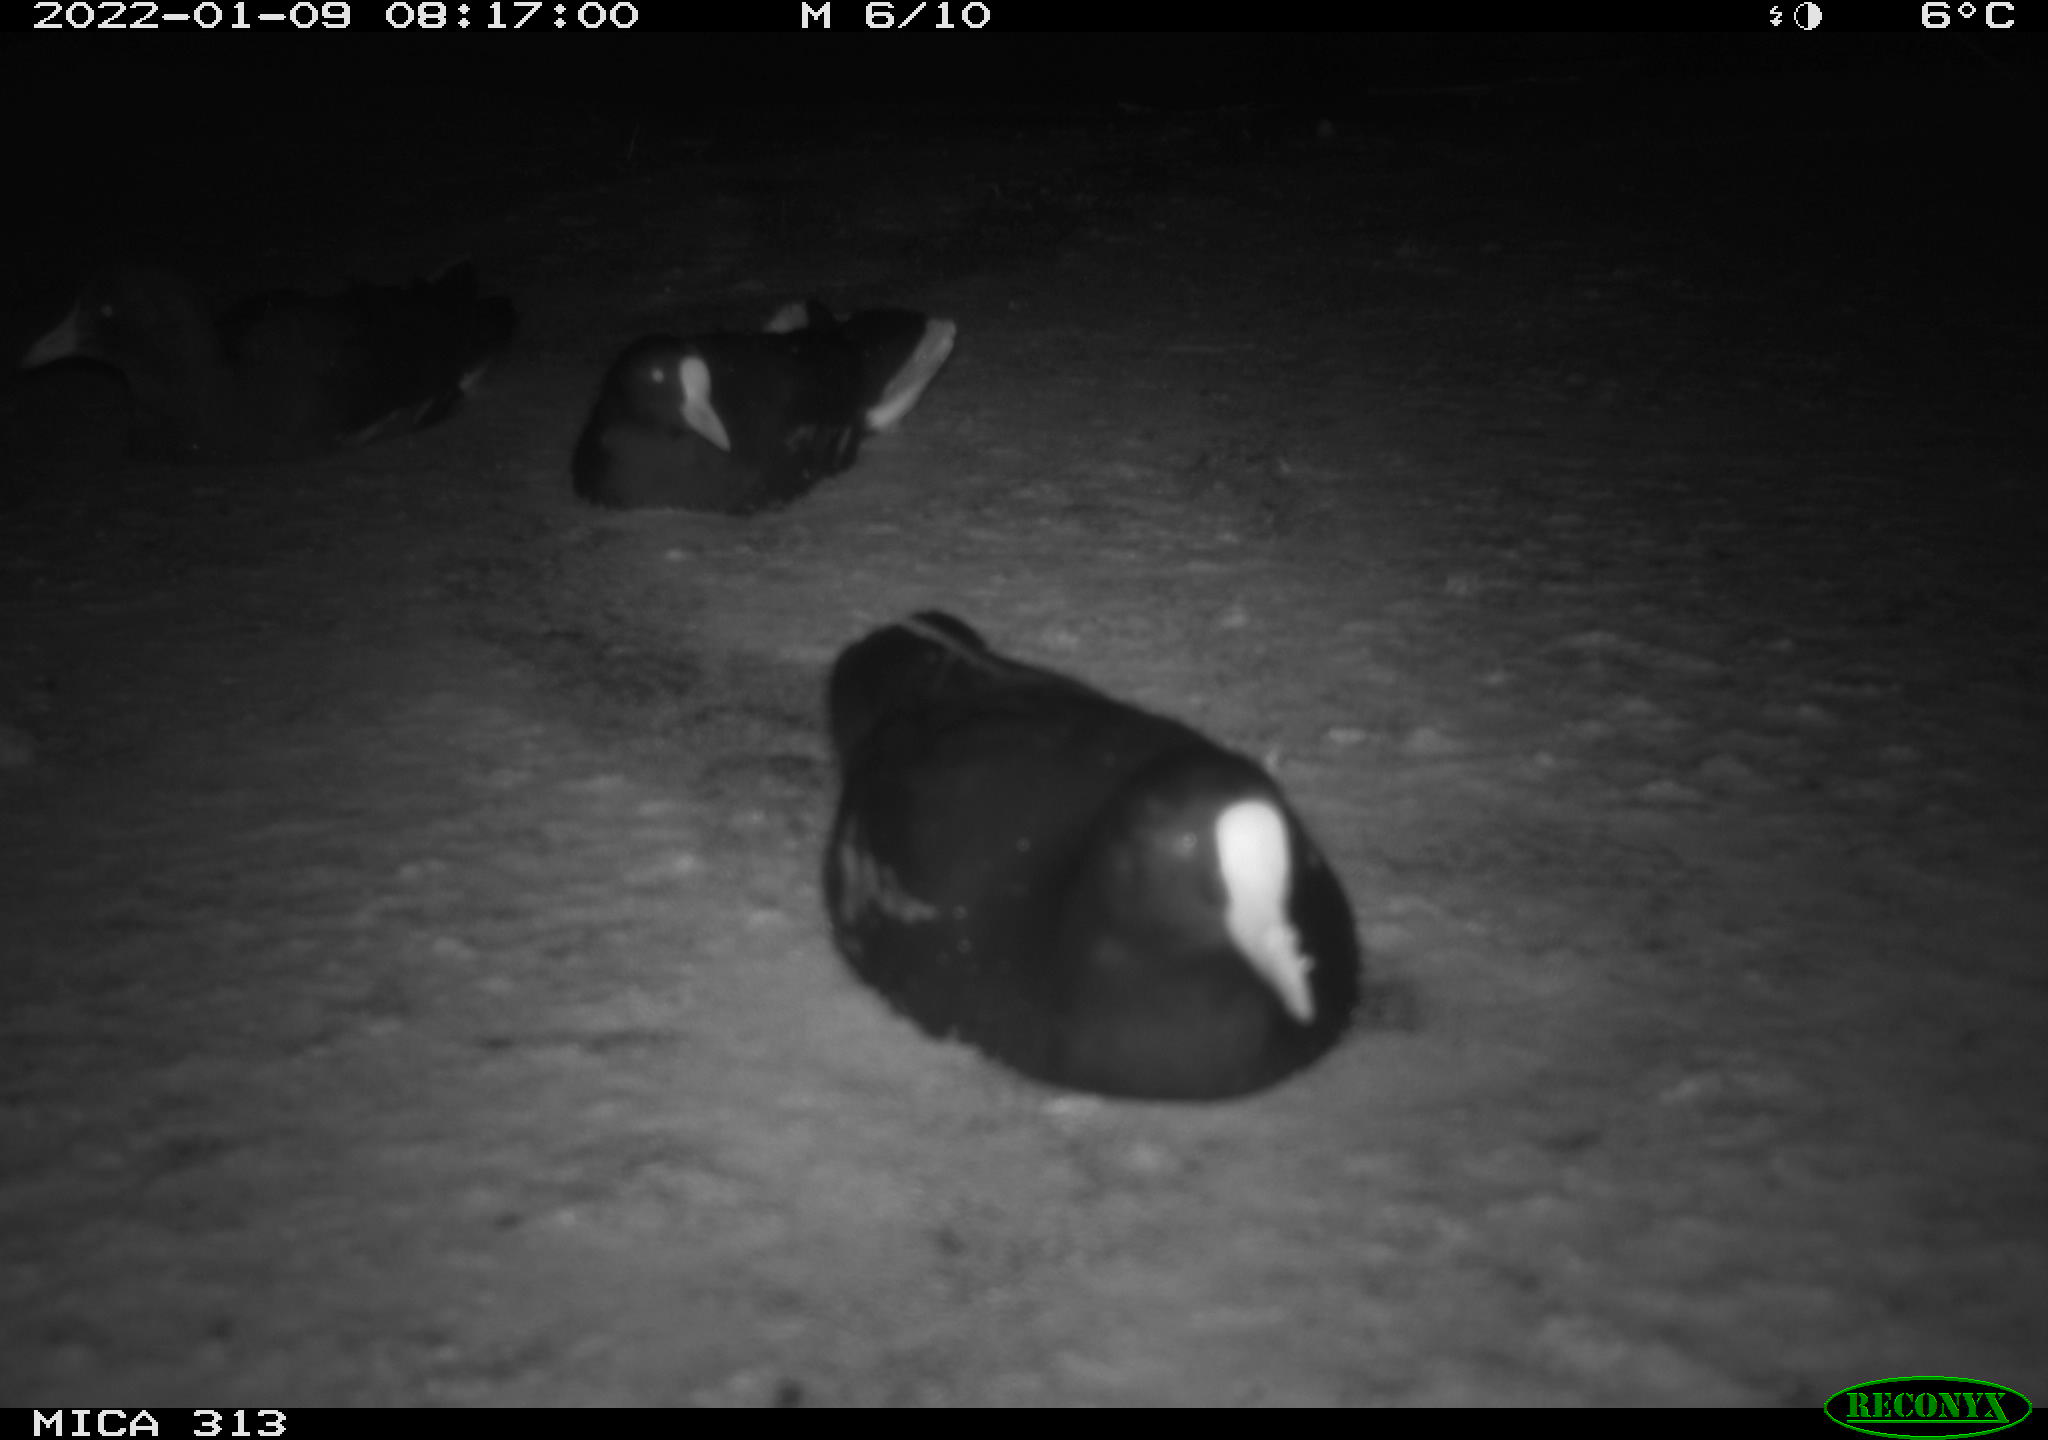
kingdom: Animalia
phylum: Chordata
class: Aves
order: Gruiformes
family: Rallidae
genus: Fulica
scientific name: Fulica atra
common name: Eurasian coot
